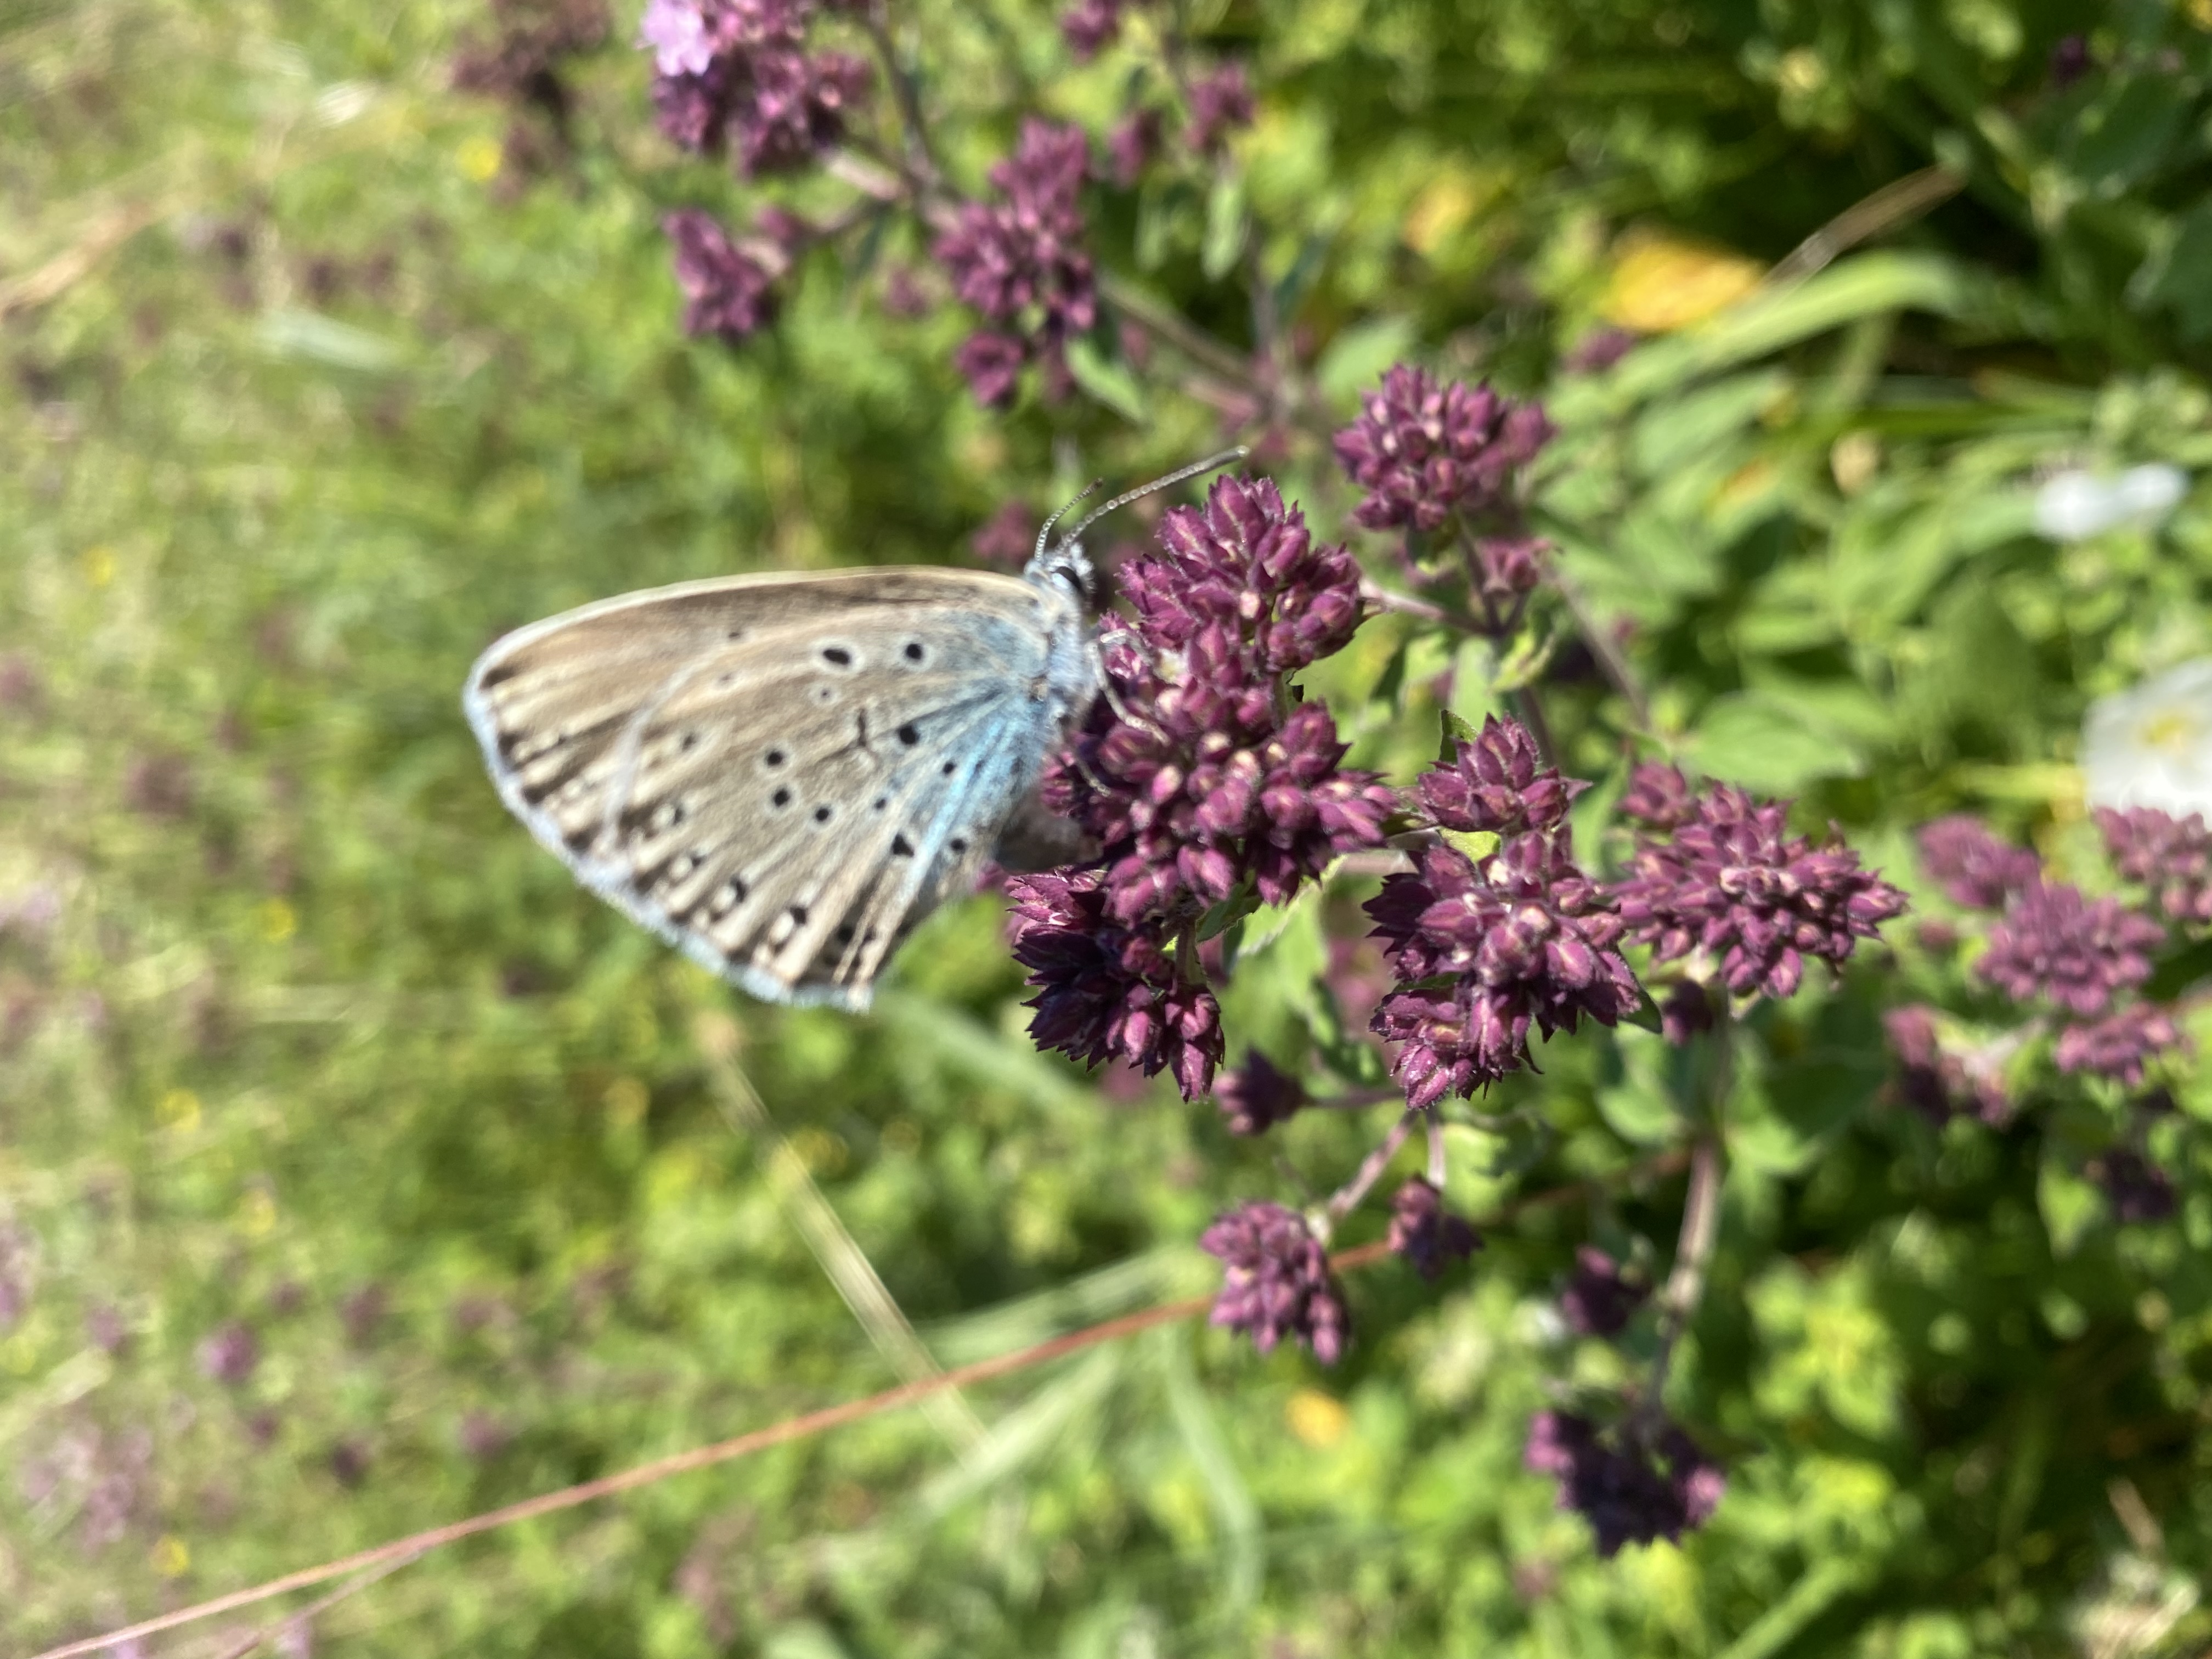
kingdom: Animalia
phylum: Arthropoda
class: Insecta
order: Lepidoptera
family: Lycaenidae
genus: Maculinea
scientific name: Maculinea arion
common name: Sortplettet blåfugl
